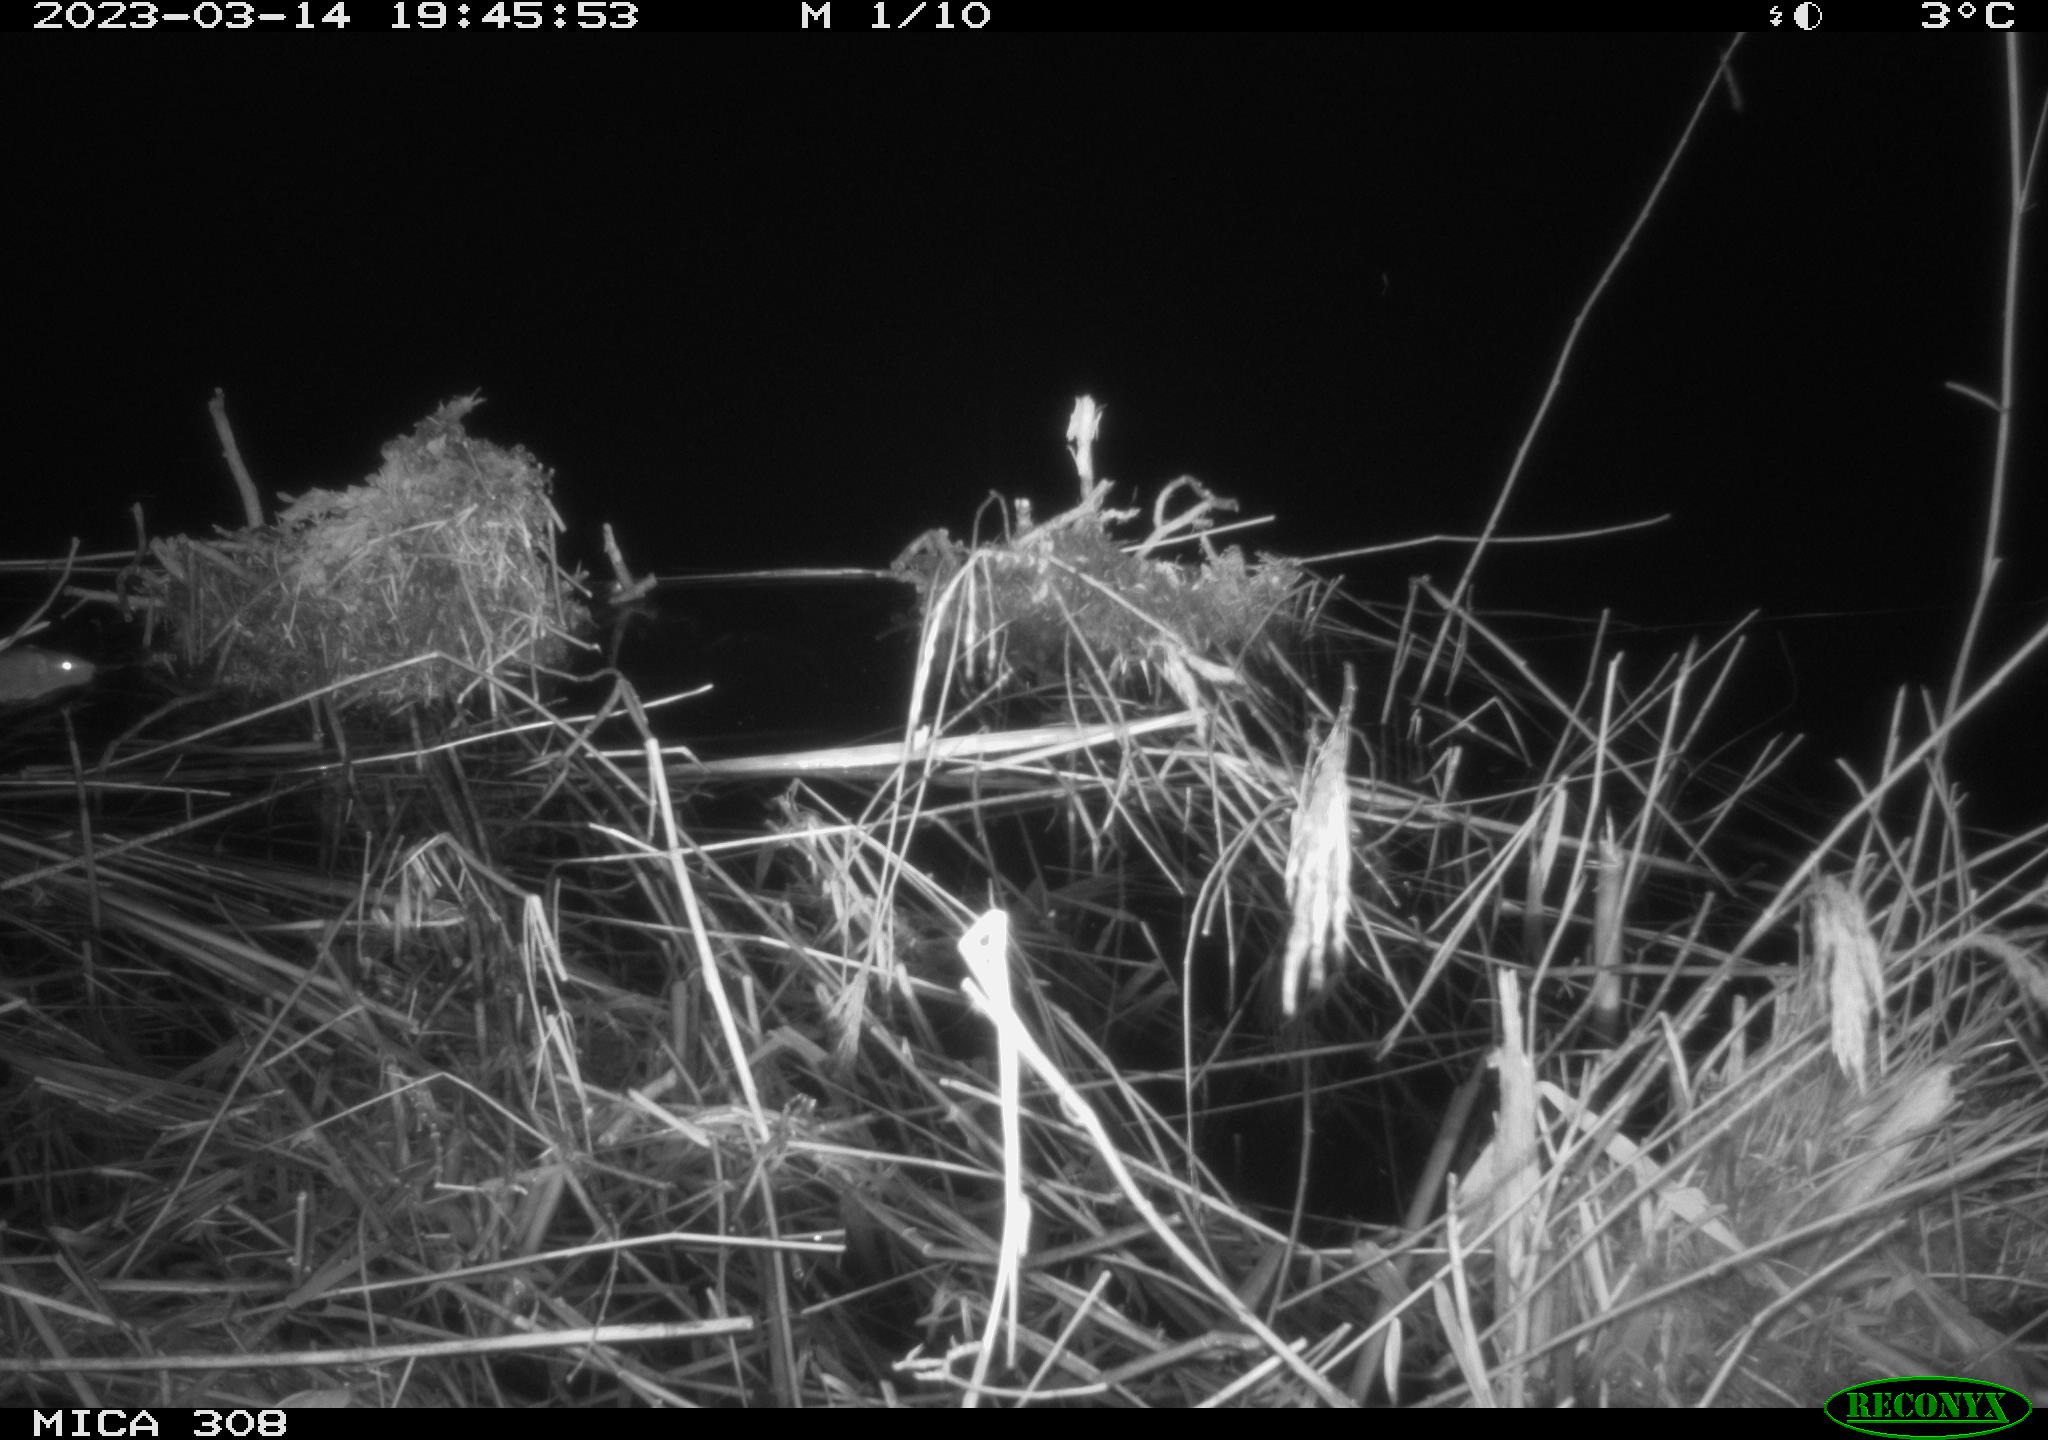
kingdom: Animalia
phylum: Chordata
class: Mammalia
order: Rodentia
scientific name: Rodentia
